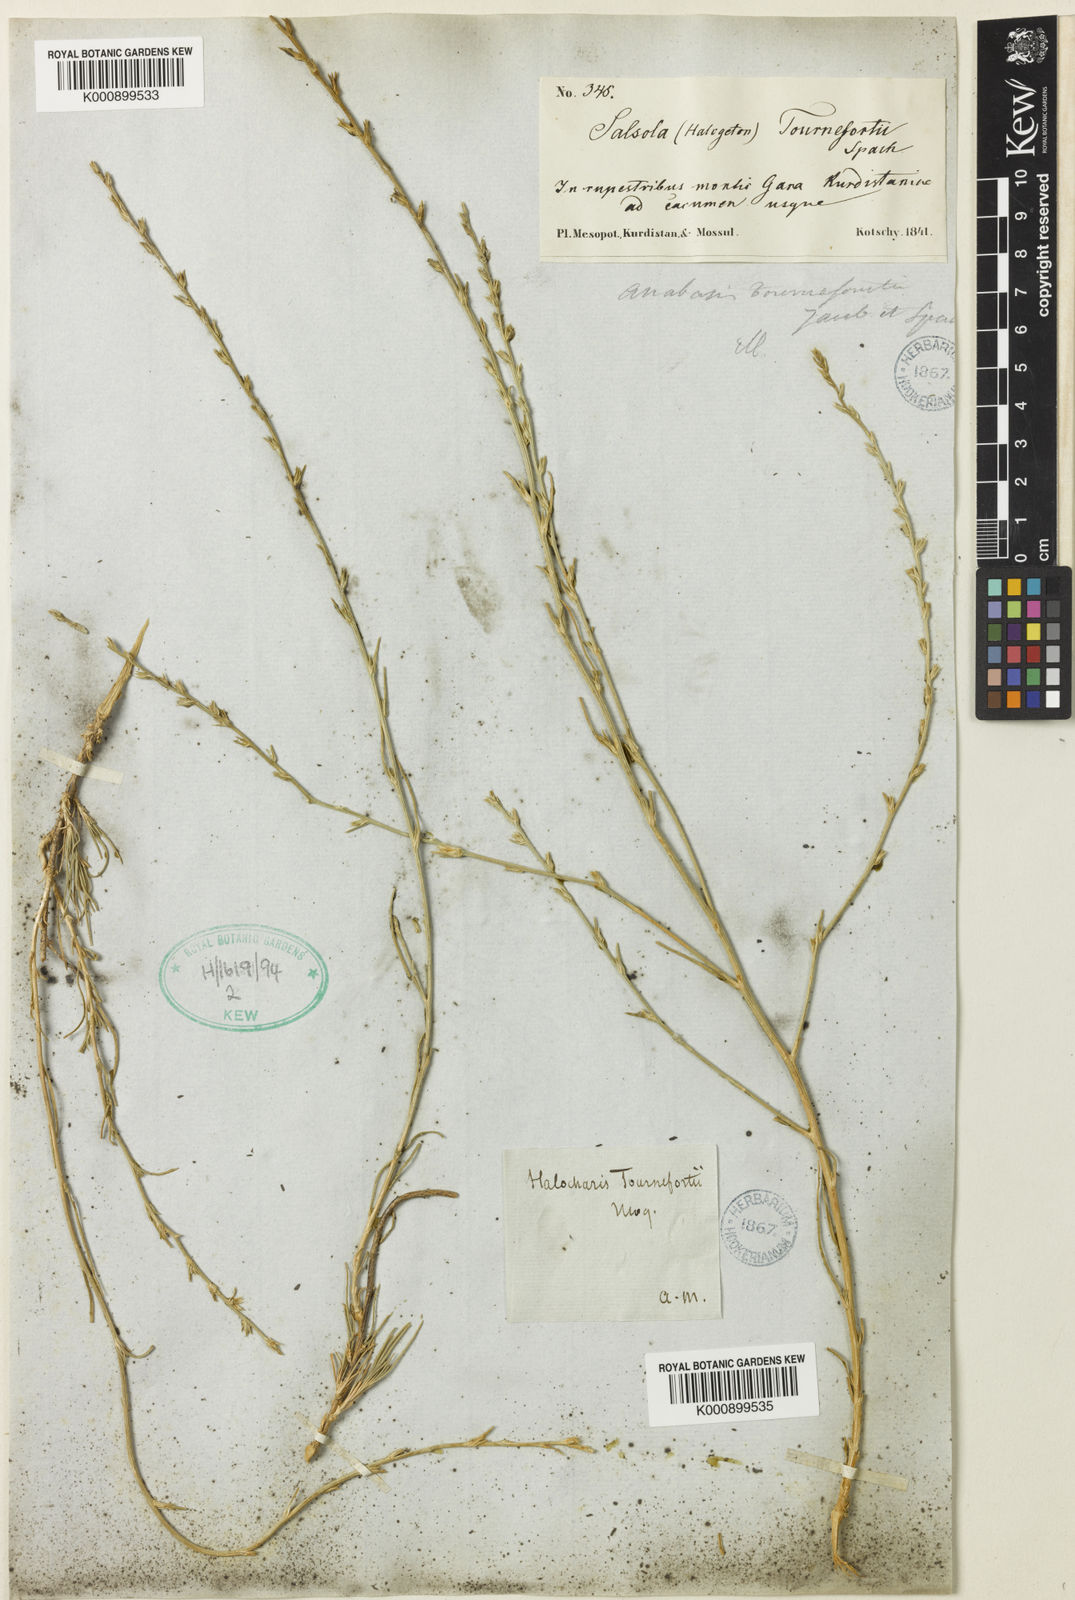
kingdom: Plantae
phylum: Tracheophyta
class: Magnoliopsida
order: Caryophyllales
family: Amaranthaceae
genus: Noaea
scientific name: Noaea tournefortii
